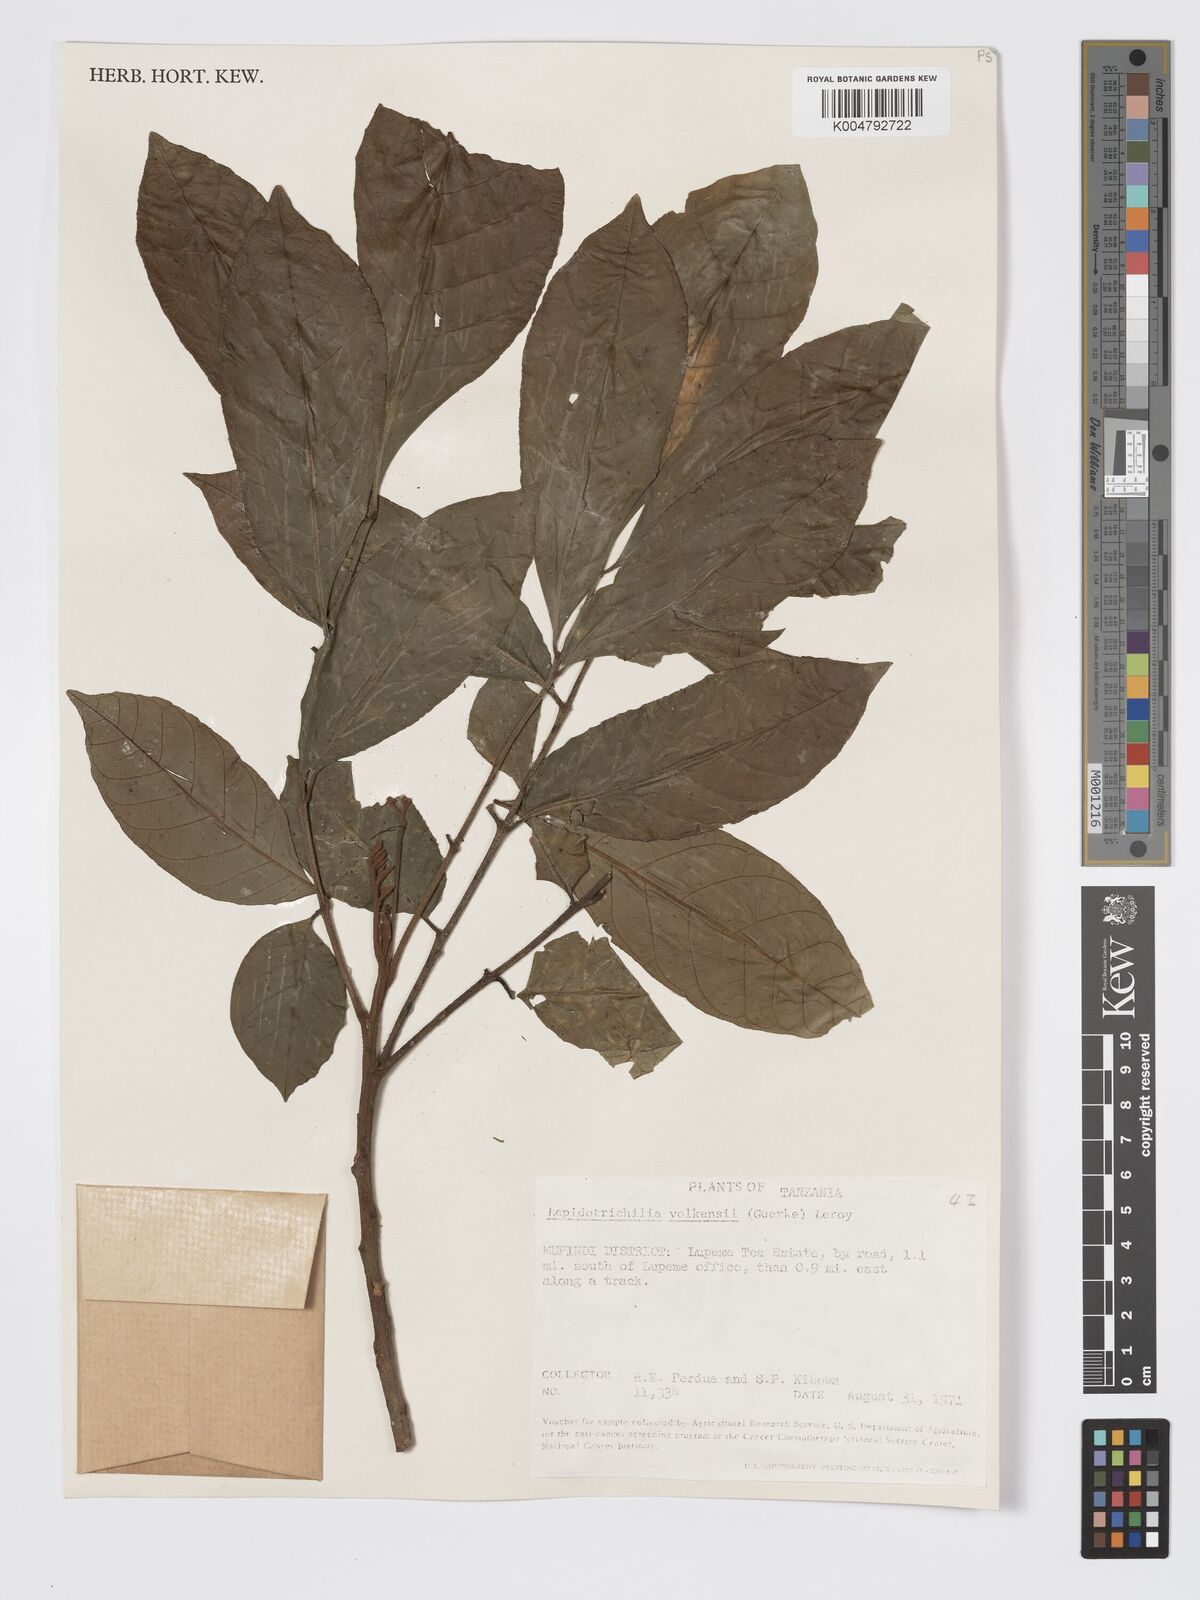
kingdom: Plantae
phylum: Tracheophyta
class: Magnoliopsida
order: Sapindales
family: Meliaceae
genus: Lepidotrichilia
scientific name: Lepidotrichilia volkensii
